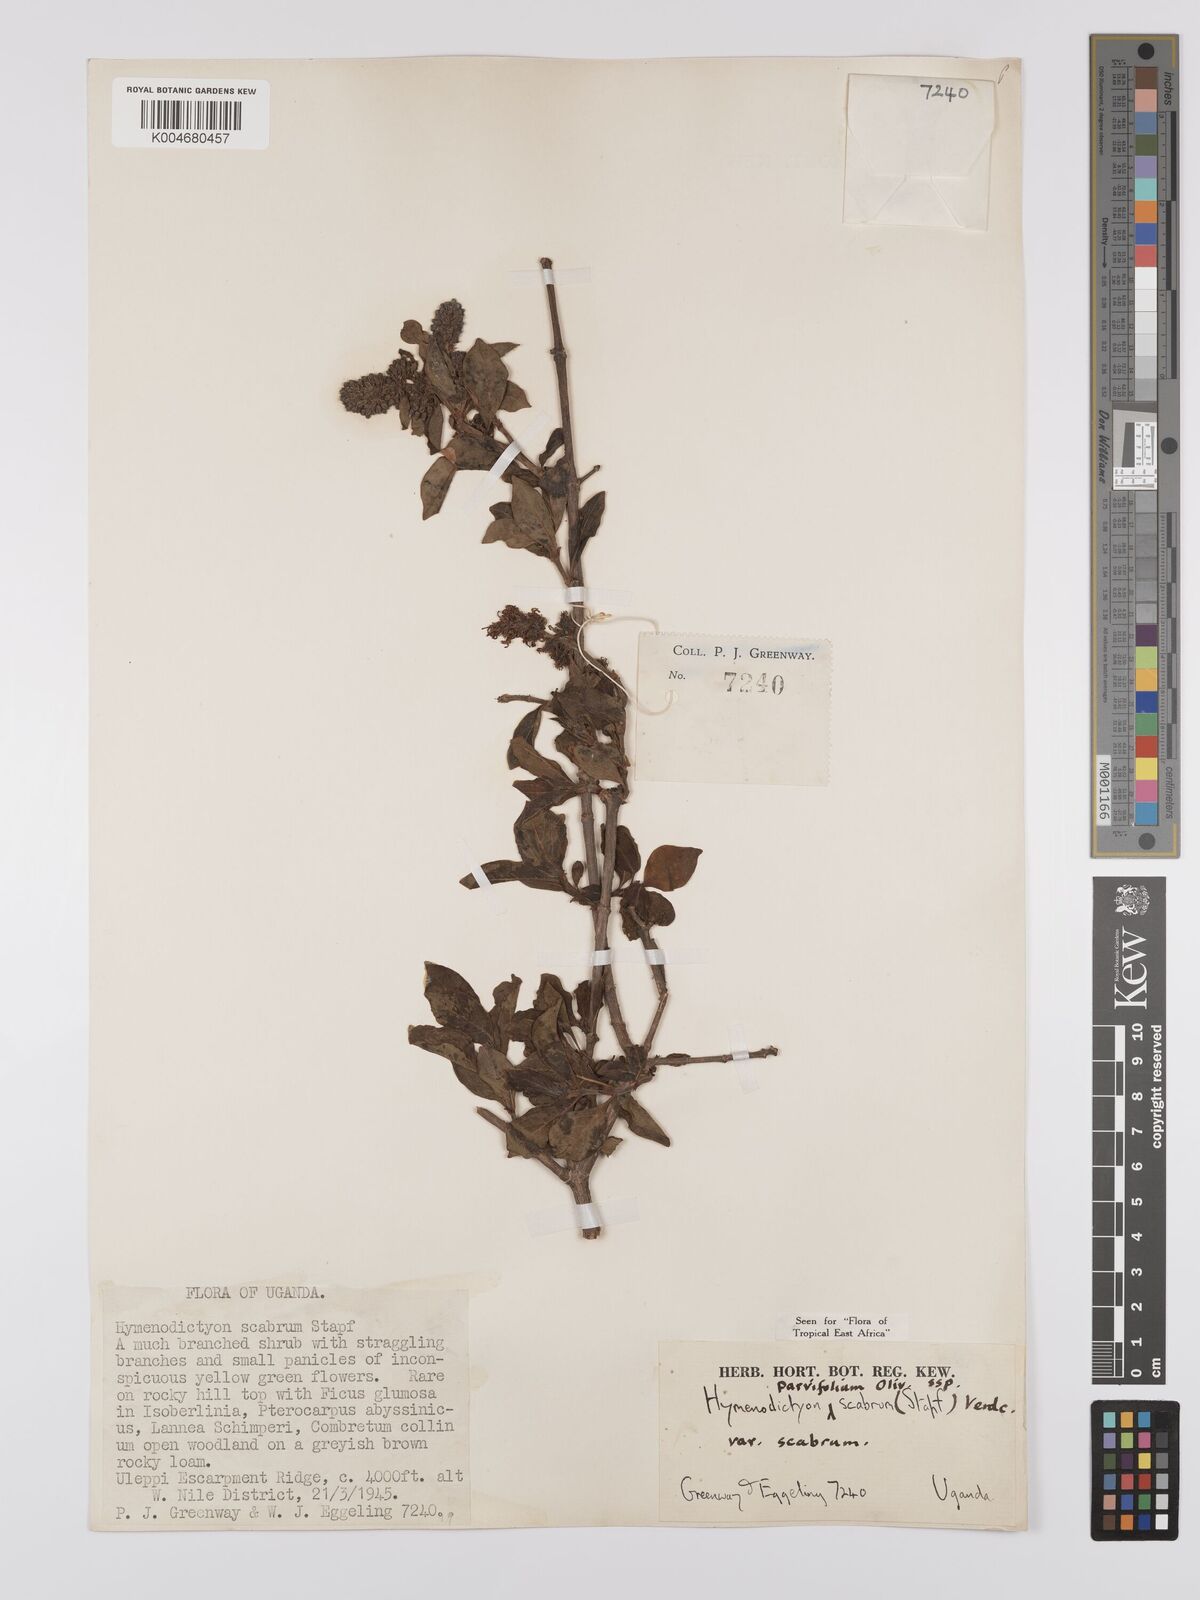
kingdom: Plantae
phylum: Tracheophyta
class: Magnoliopsida
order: Gentianales
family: Rubiaceae
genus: Hymenodictyon
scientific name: Hymenodictyon scabrum
